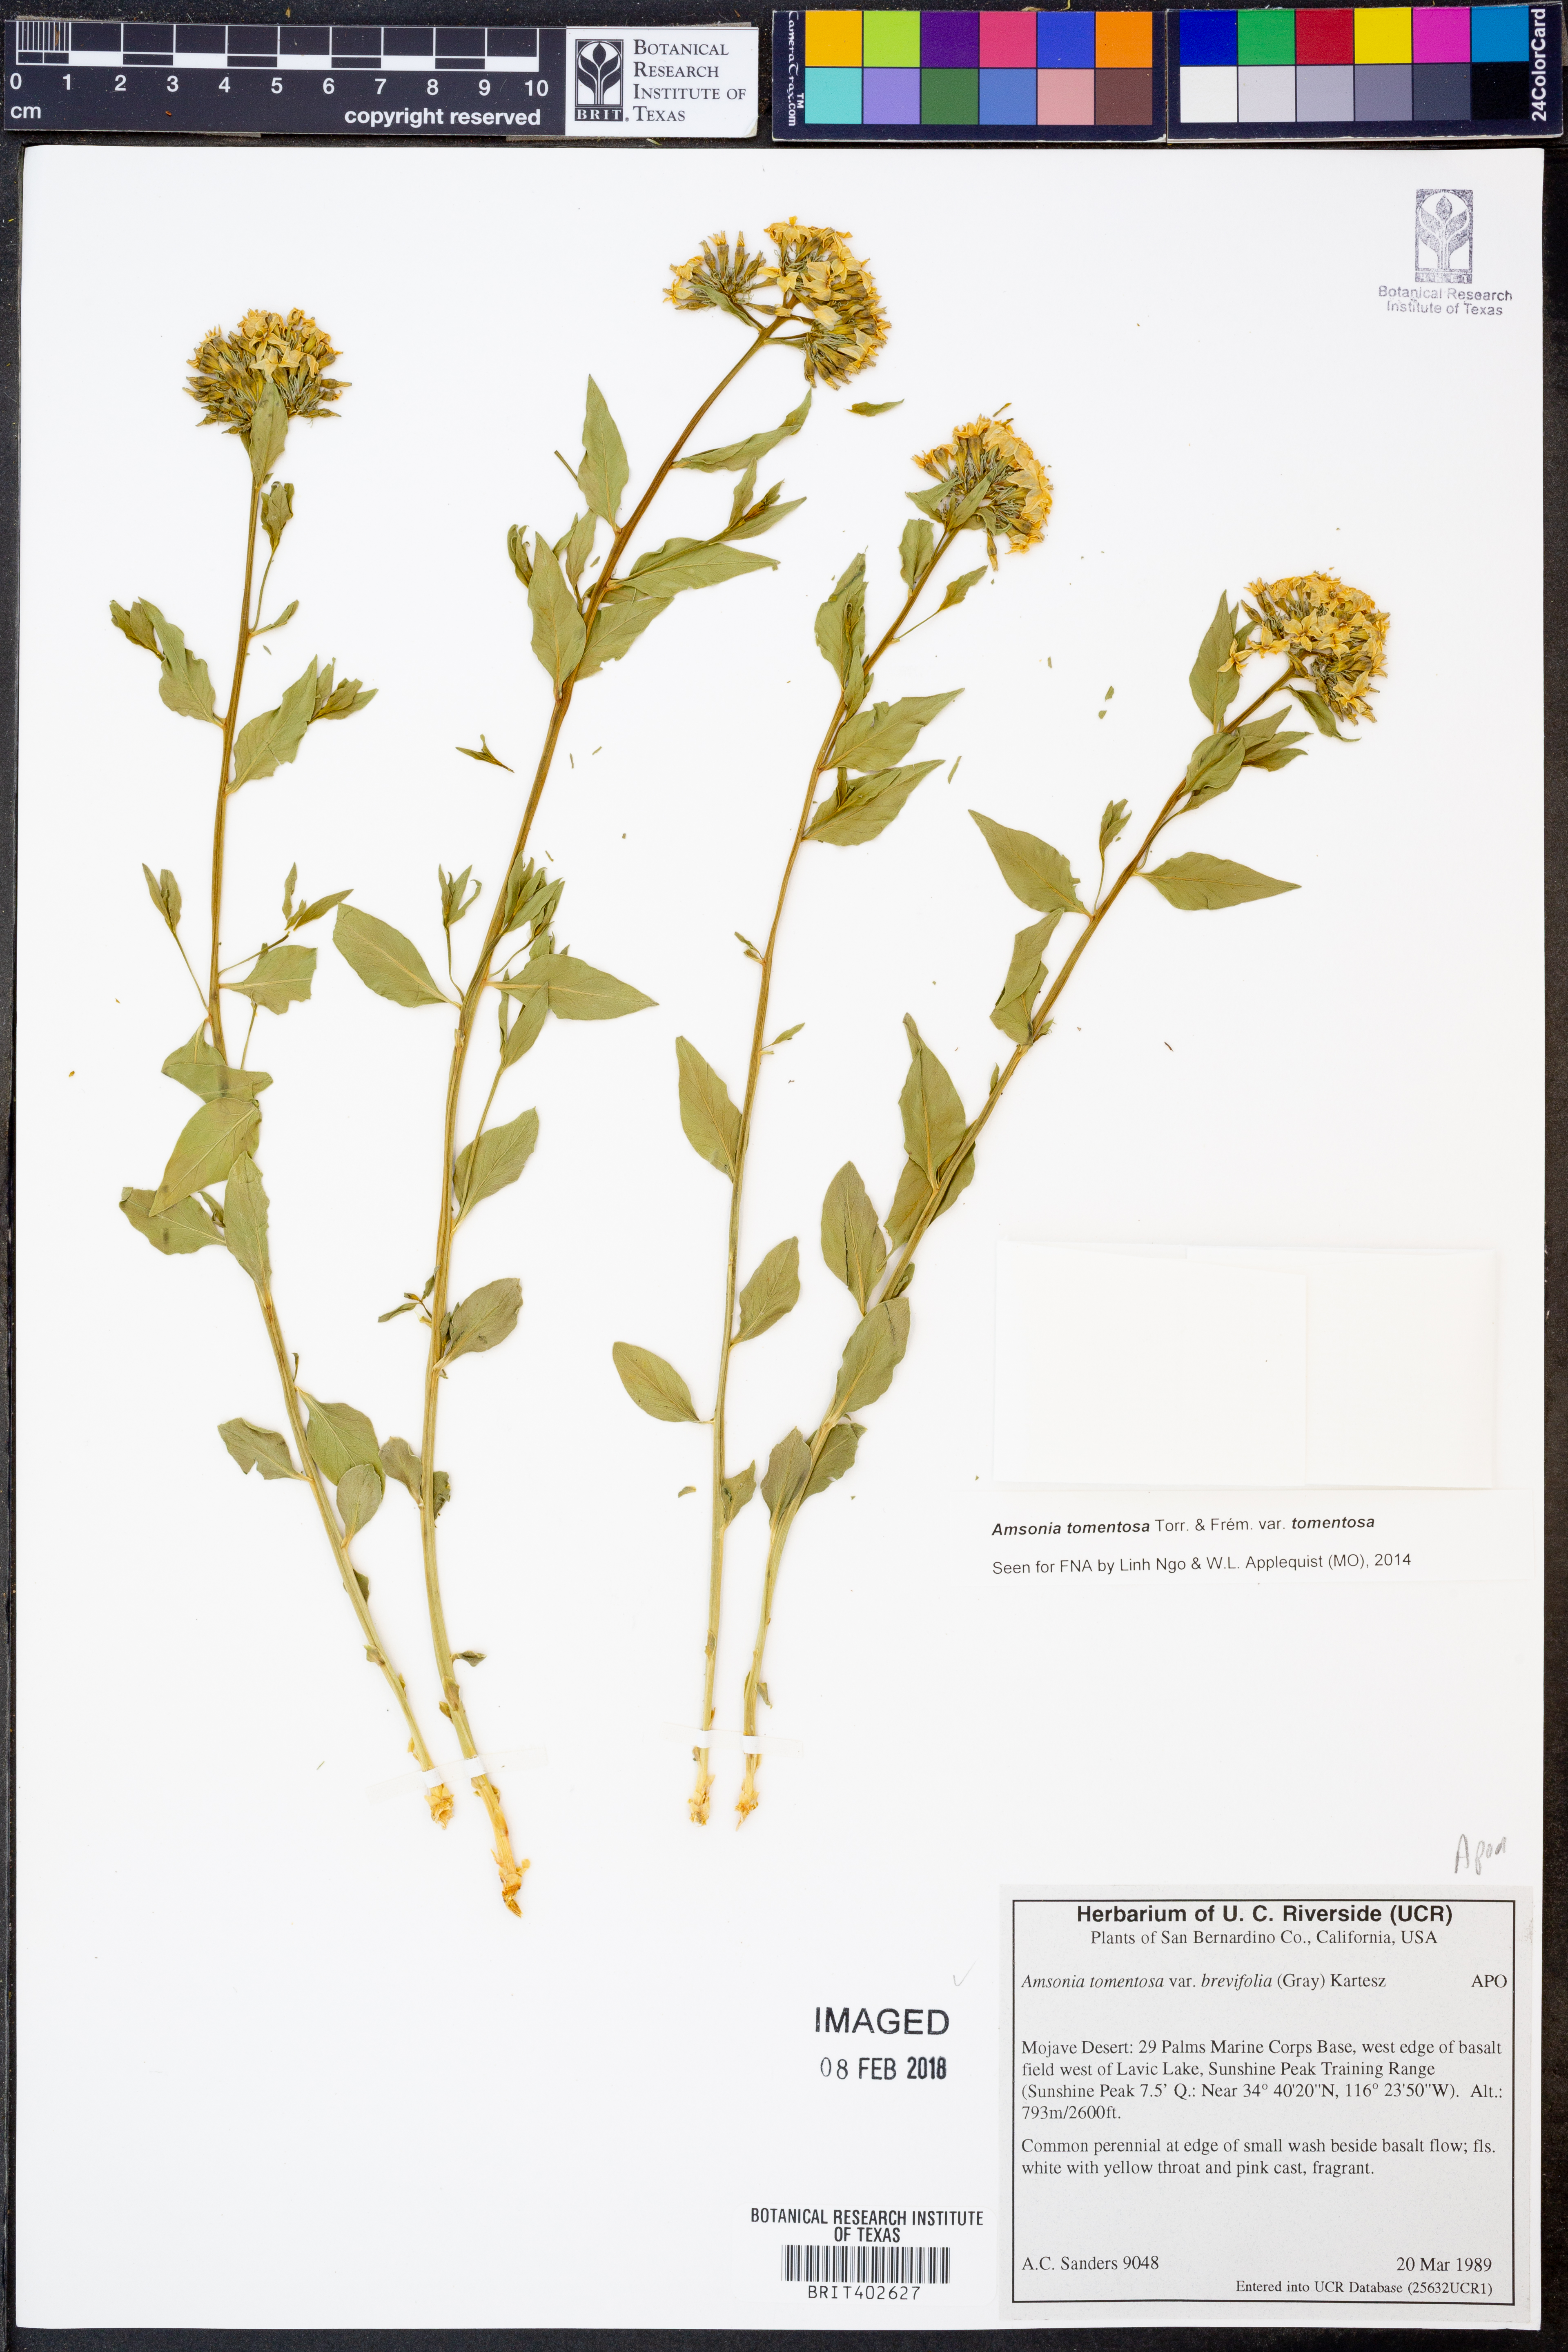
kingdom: Plantae
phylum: Tracheophyta
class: Magnoliopsida
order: Gentianales
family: Apocynaceae
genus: Amsonia
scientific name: Amsonia tomentosa
